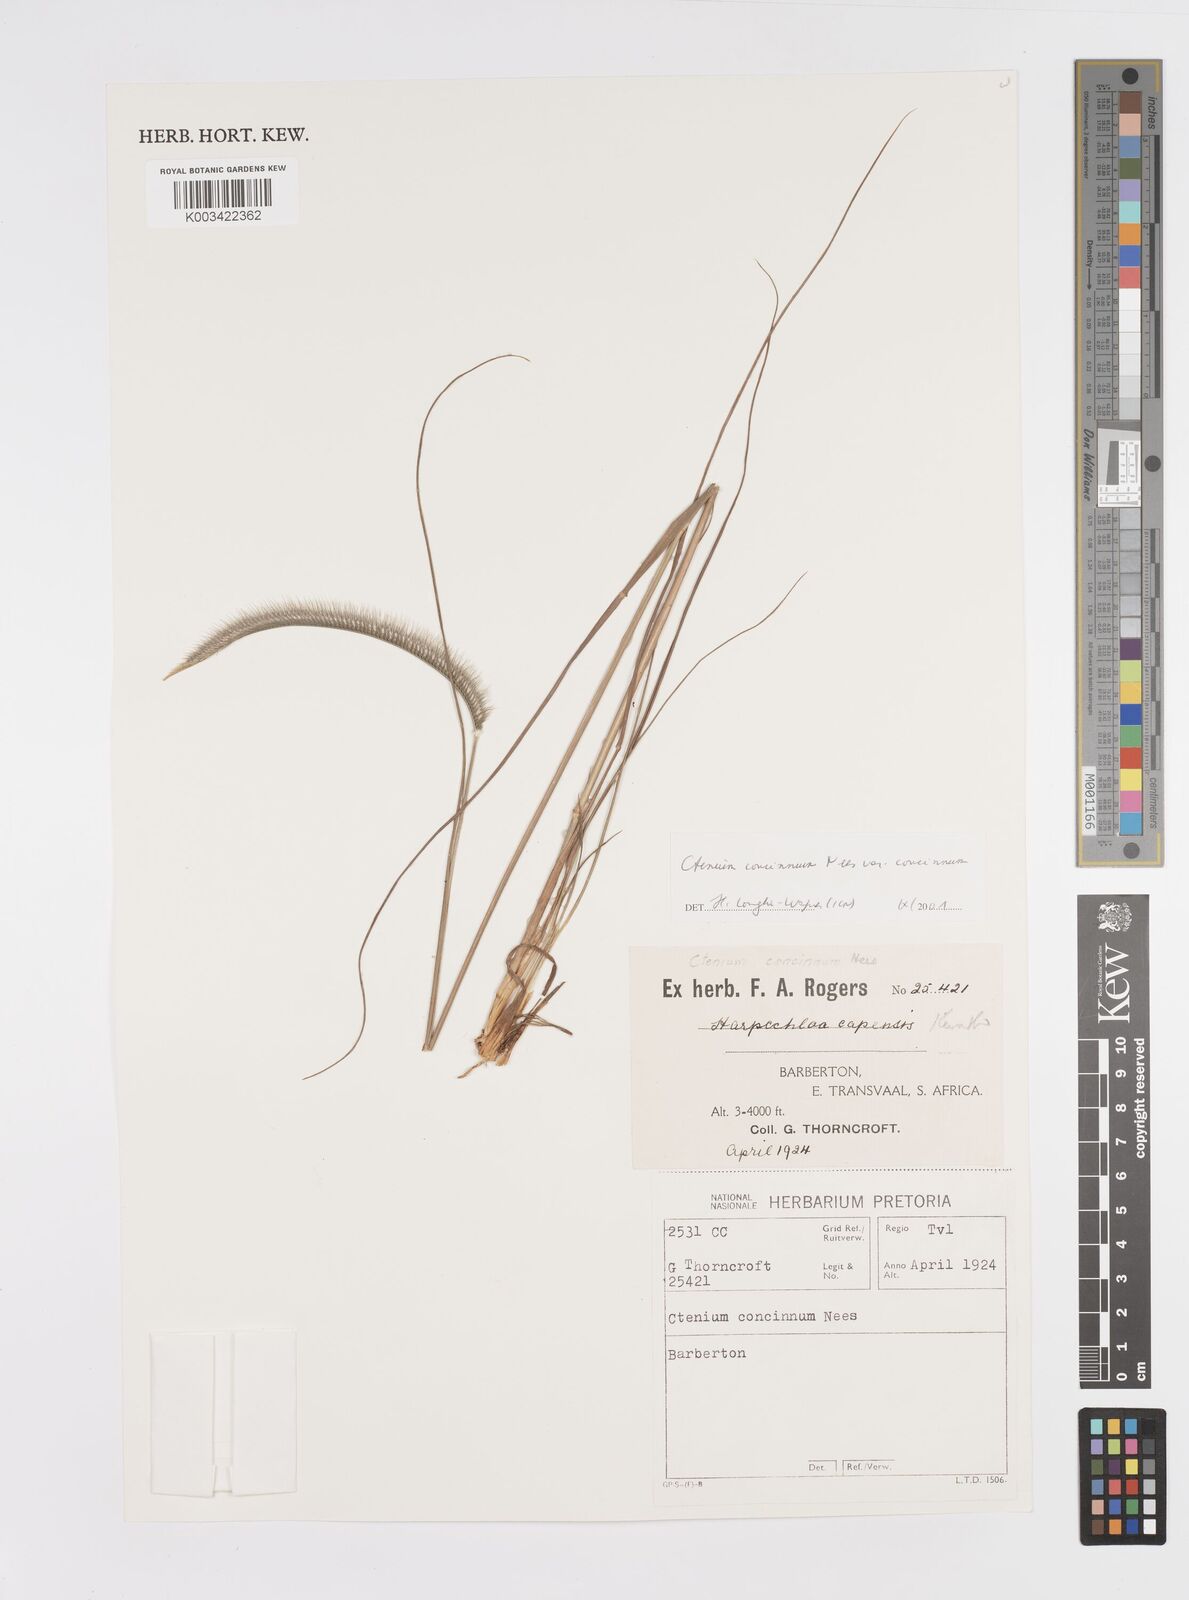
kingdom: Plantae
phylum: Tracheophyta
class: Liliopsida
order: Poales
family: Poaceae
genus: Ctenium
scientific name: Ctenium concinnum
